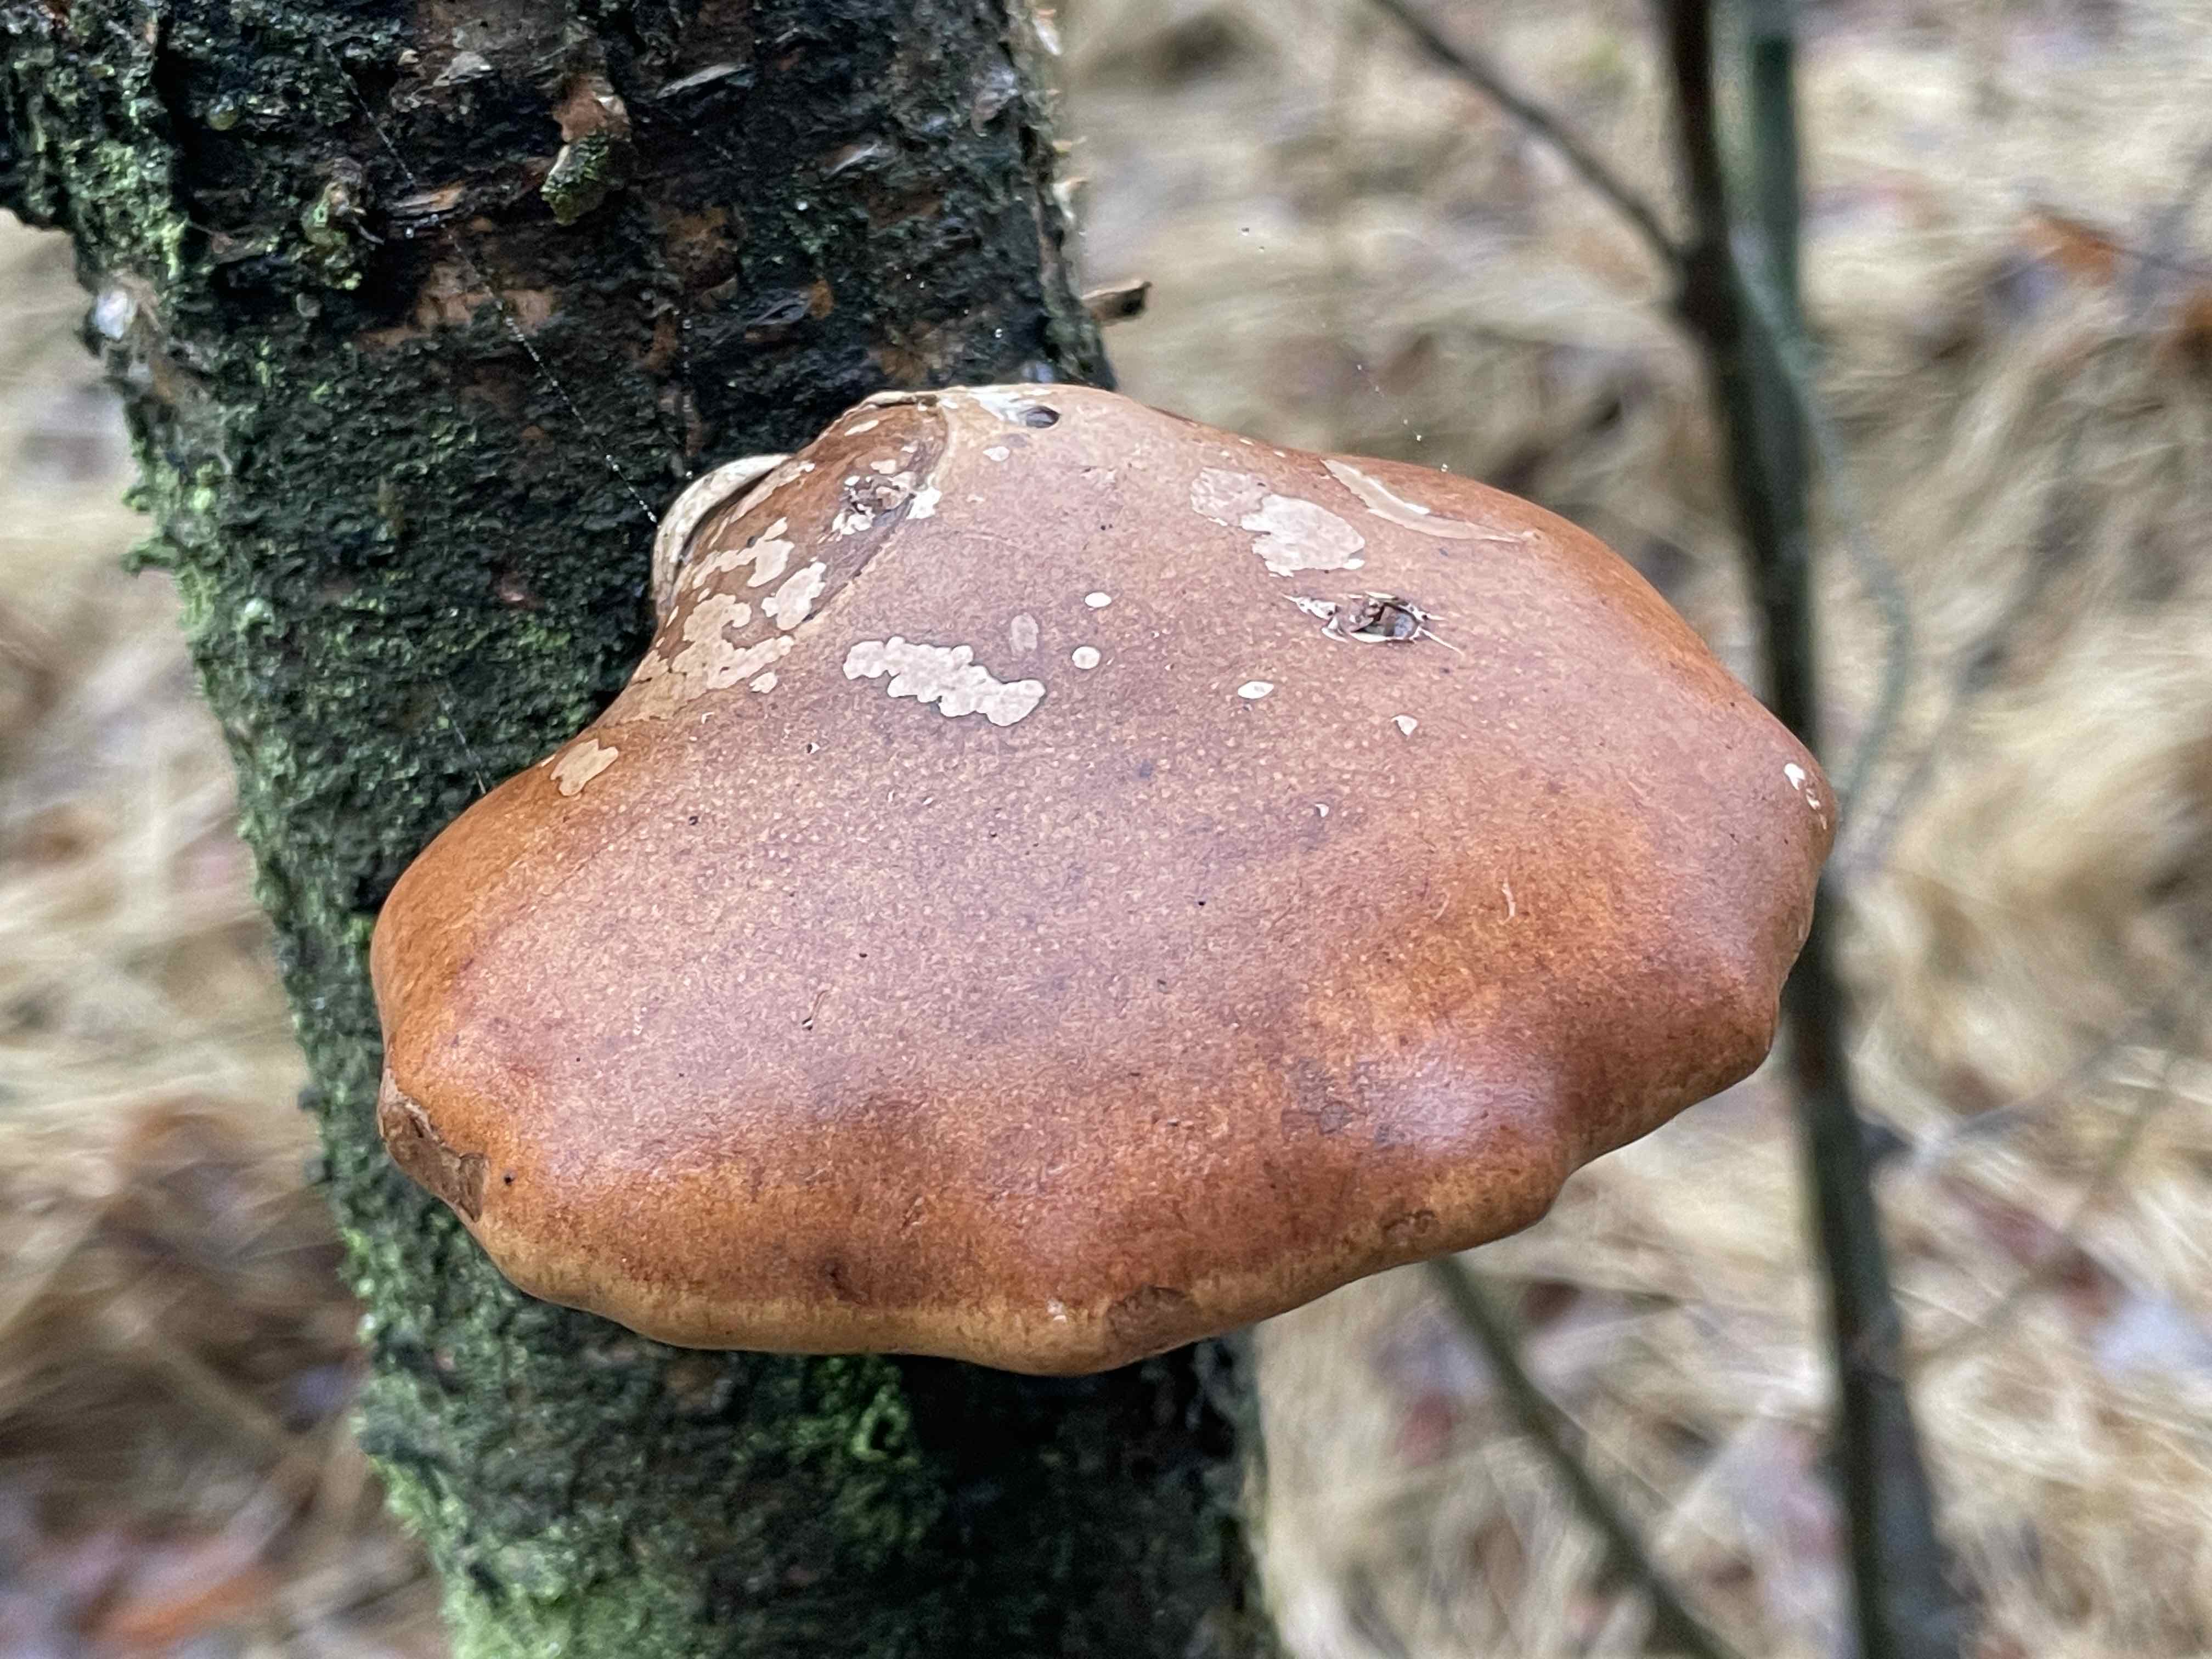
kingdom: Fungi
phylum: Basidiomycota
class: Agaricomycetes
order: Polyporales
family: Fomitopsidaceae
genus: Fomitopsis
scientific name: Fomitopsis betulina
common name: birkeporesvamp
